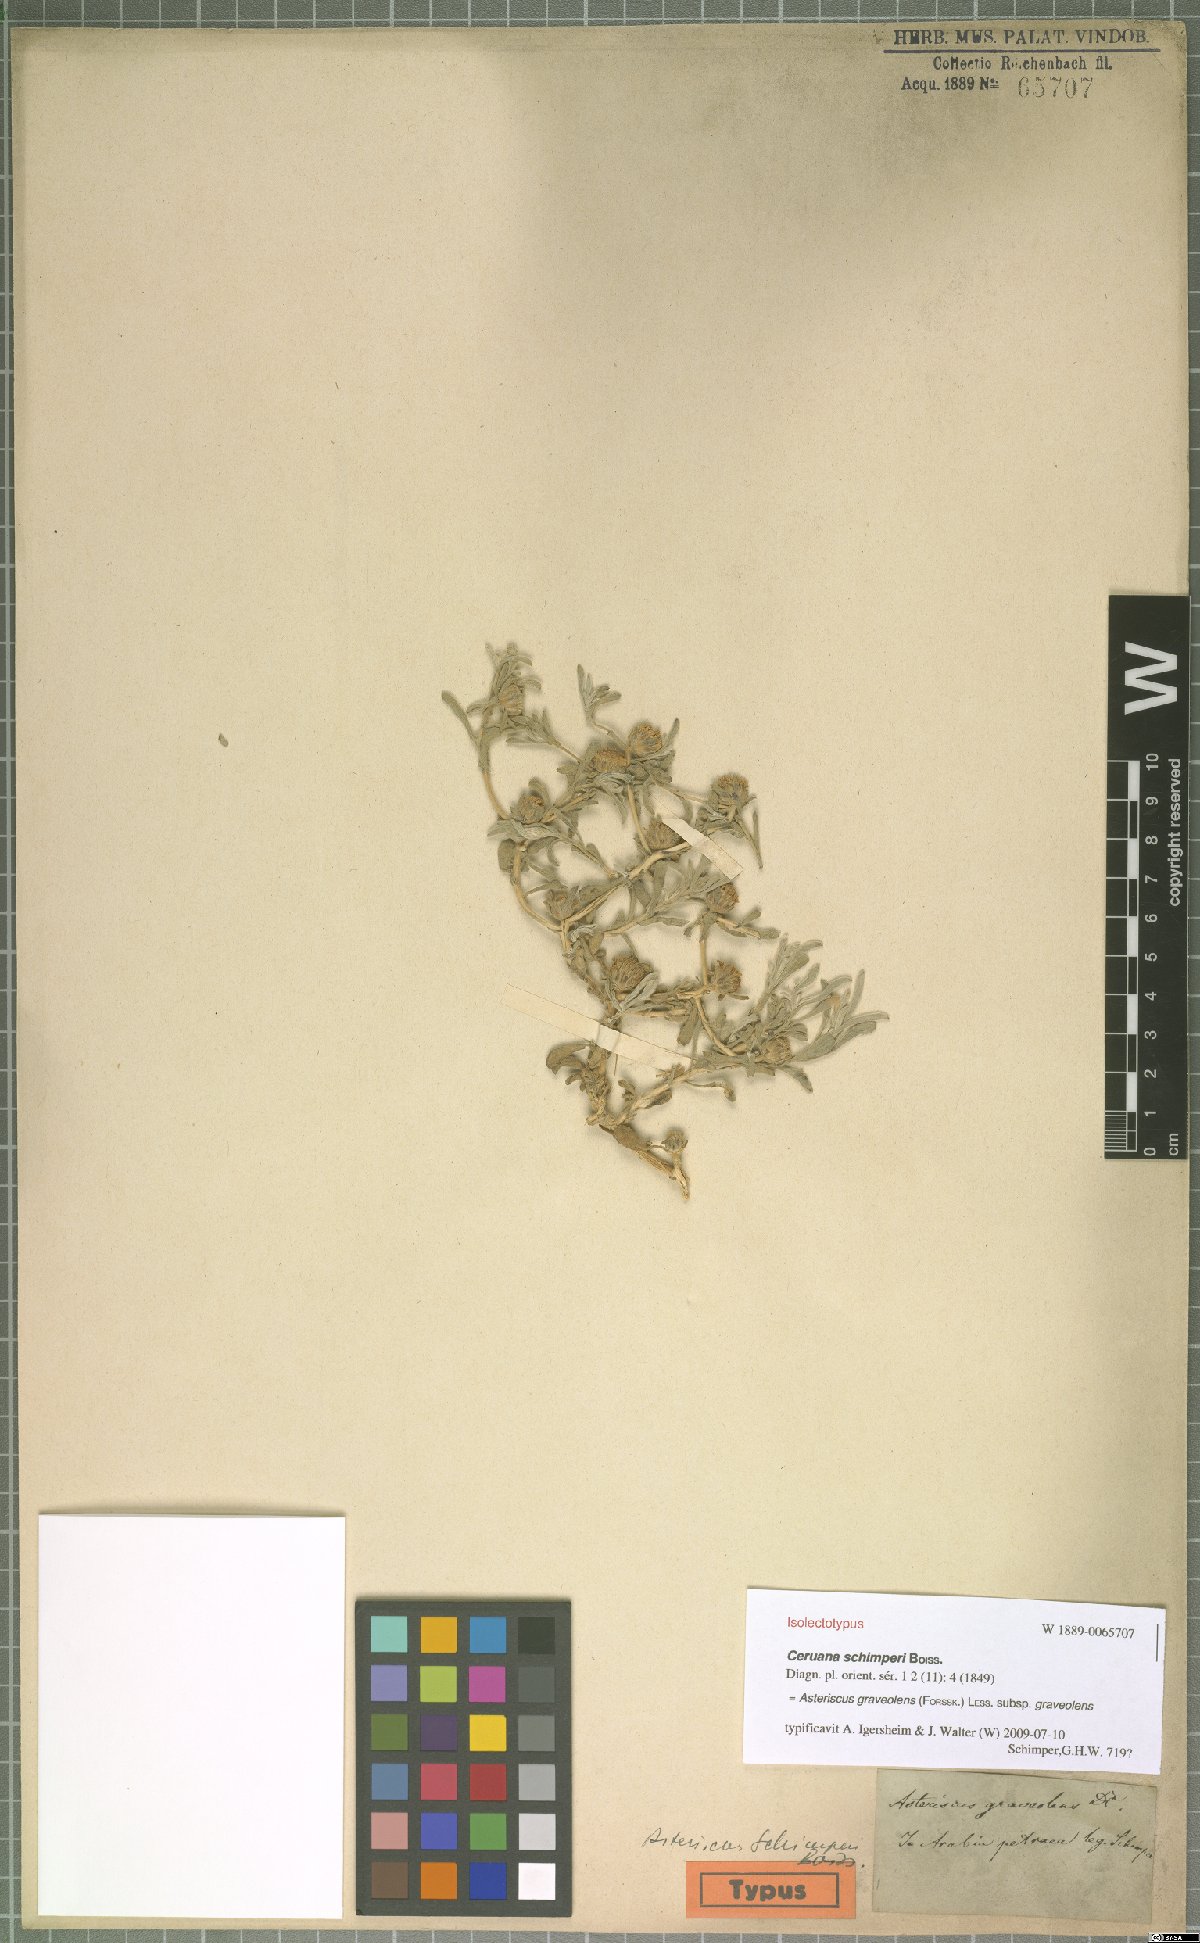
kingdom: Plantae
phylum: Tracheophyta
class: Magnoliopsida
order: Asterales
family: Asteraceae
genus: Asteriscus
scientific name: Asteriscus graveolens
